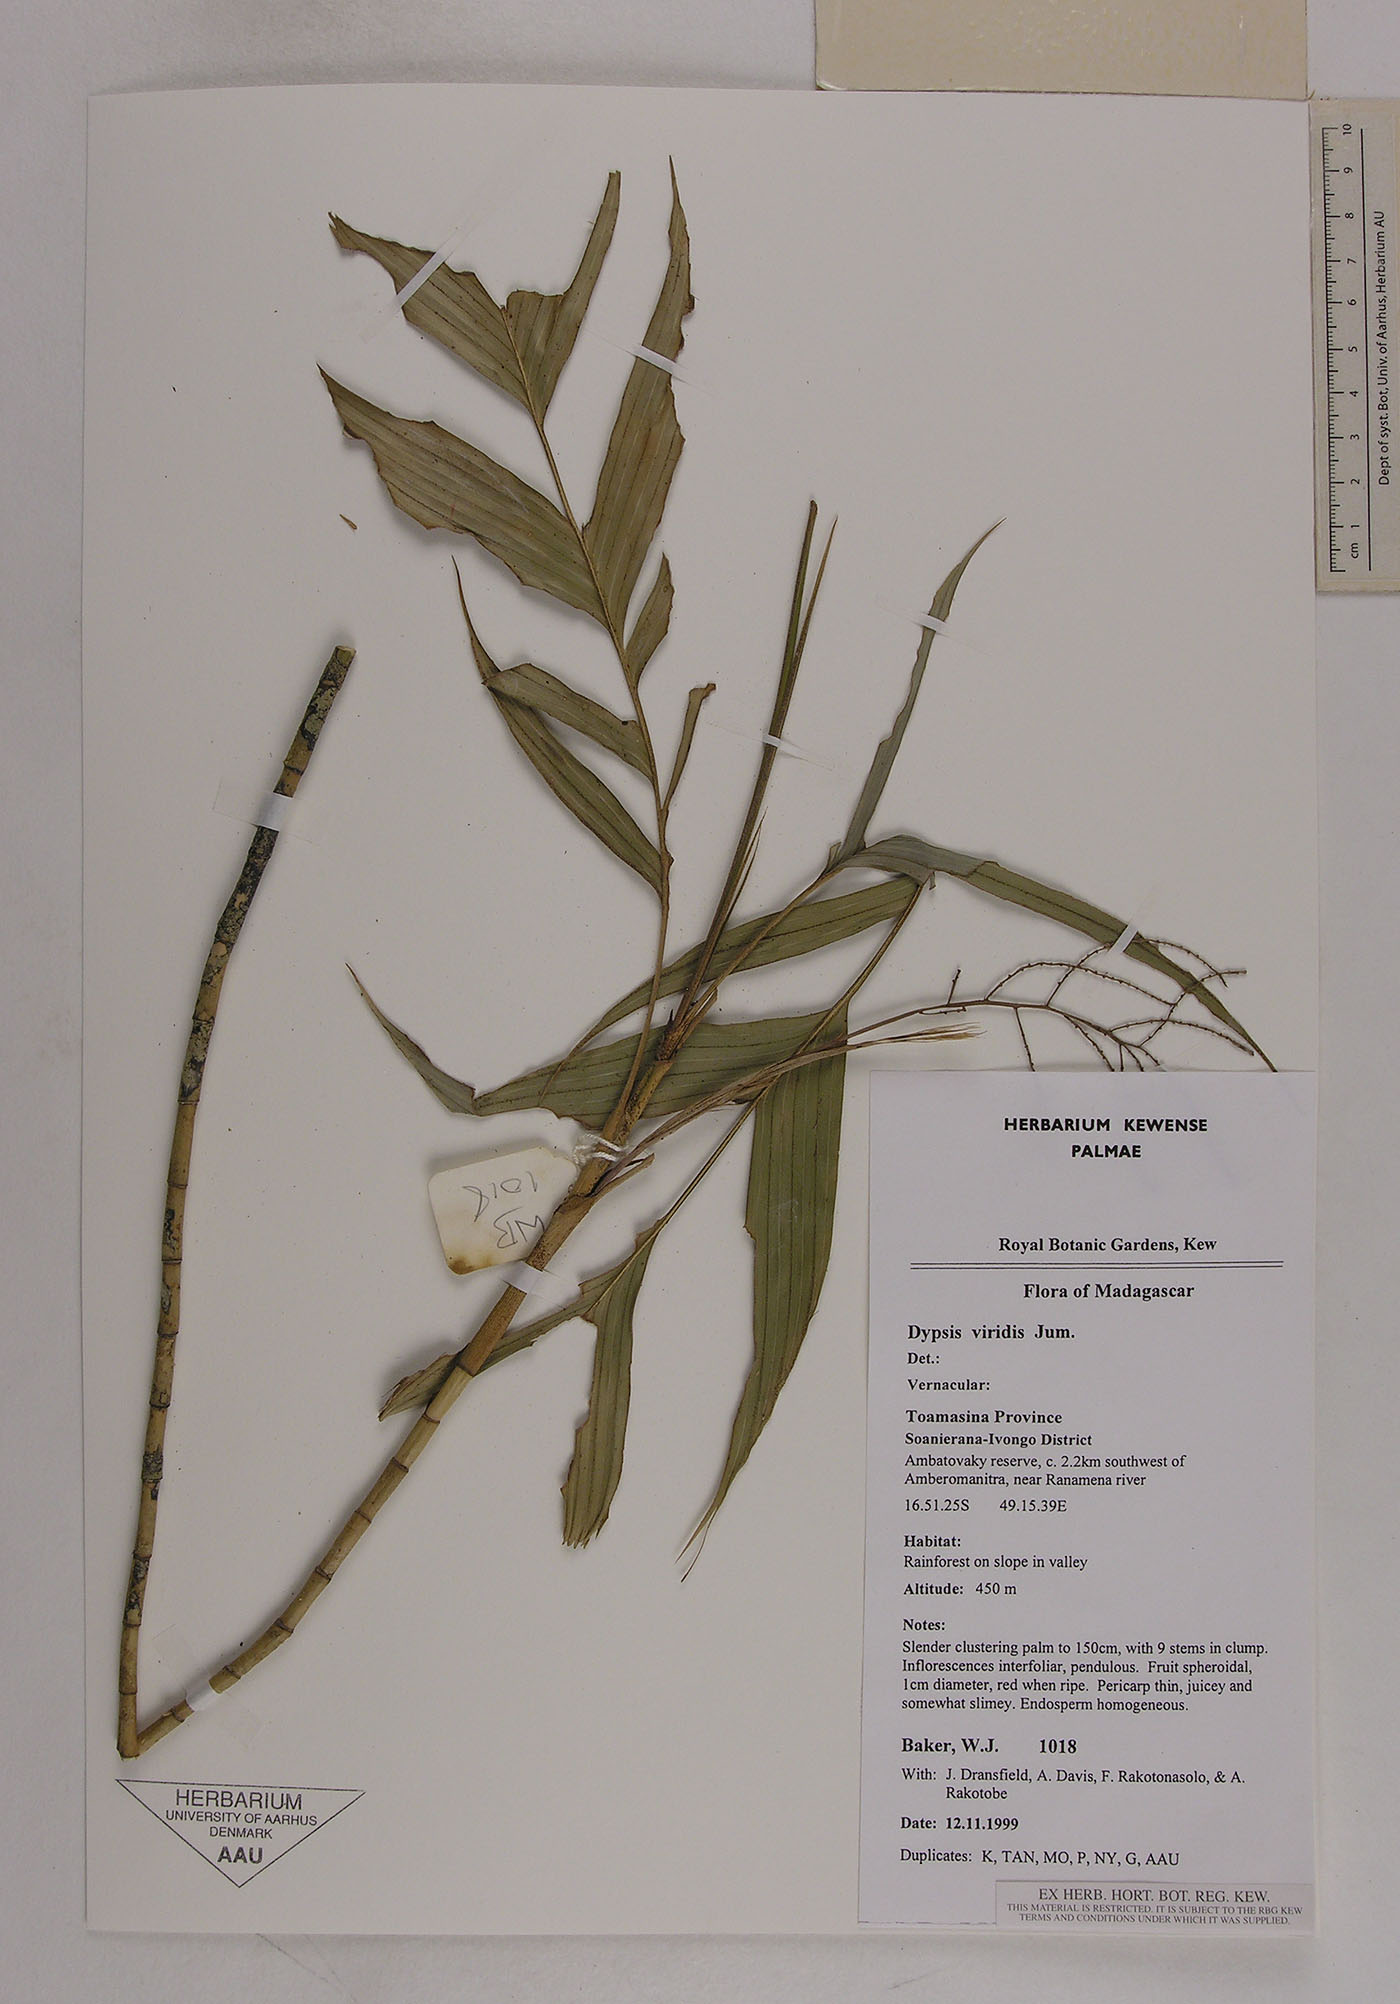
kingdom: Plantae
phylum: Tracheophyta
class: Liliopsida
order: Arecales
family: Arecaceae
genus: Dypsis
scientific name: Dypsis viridis
